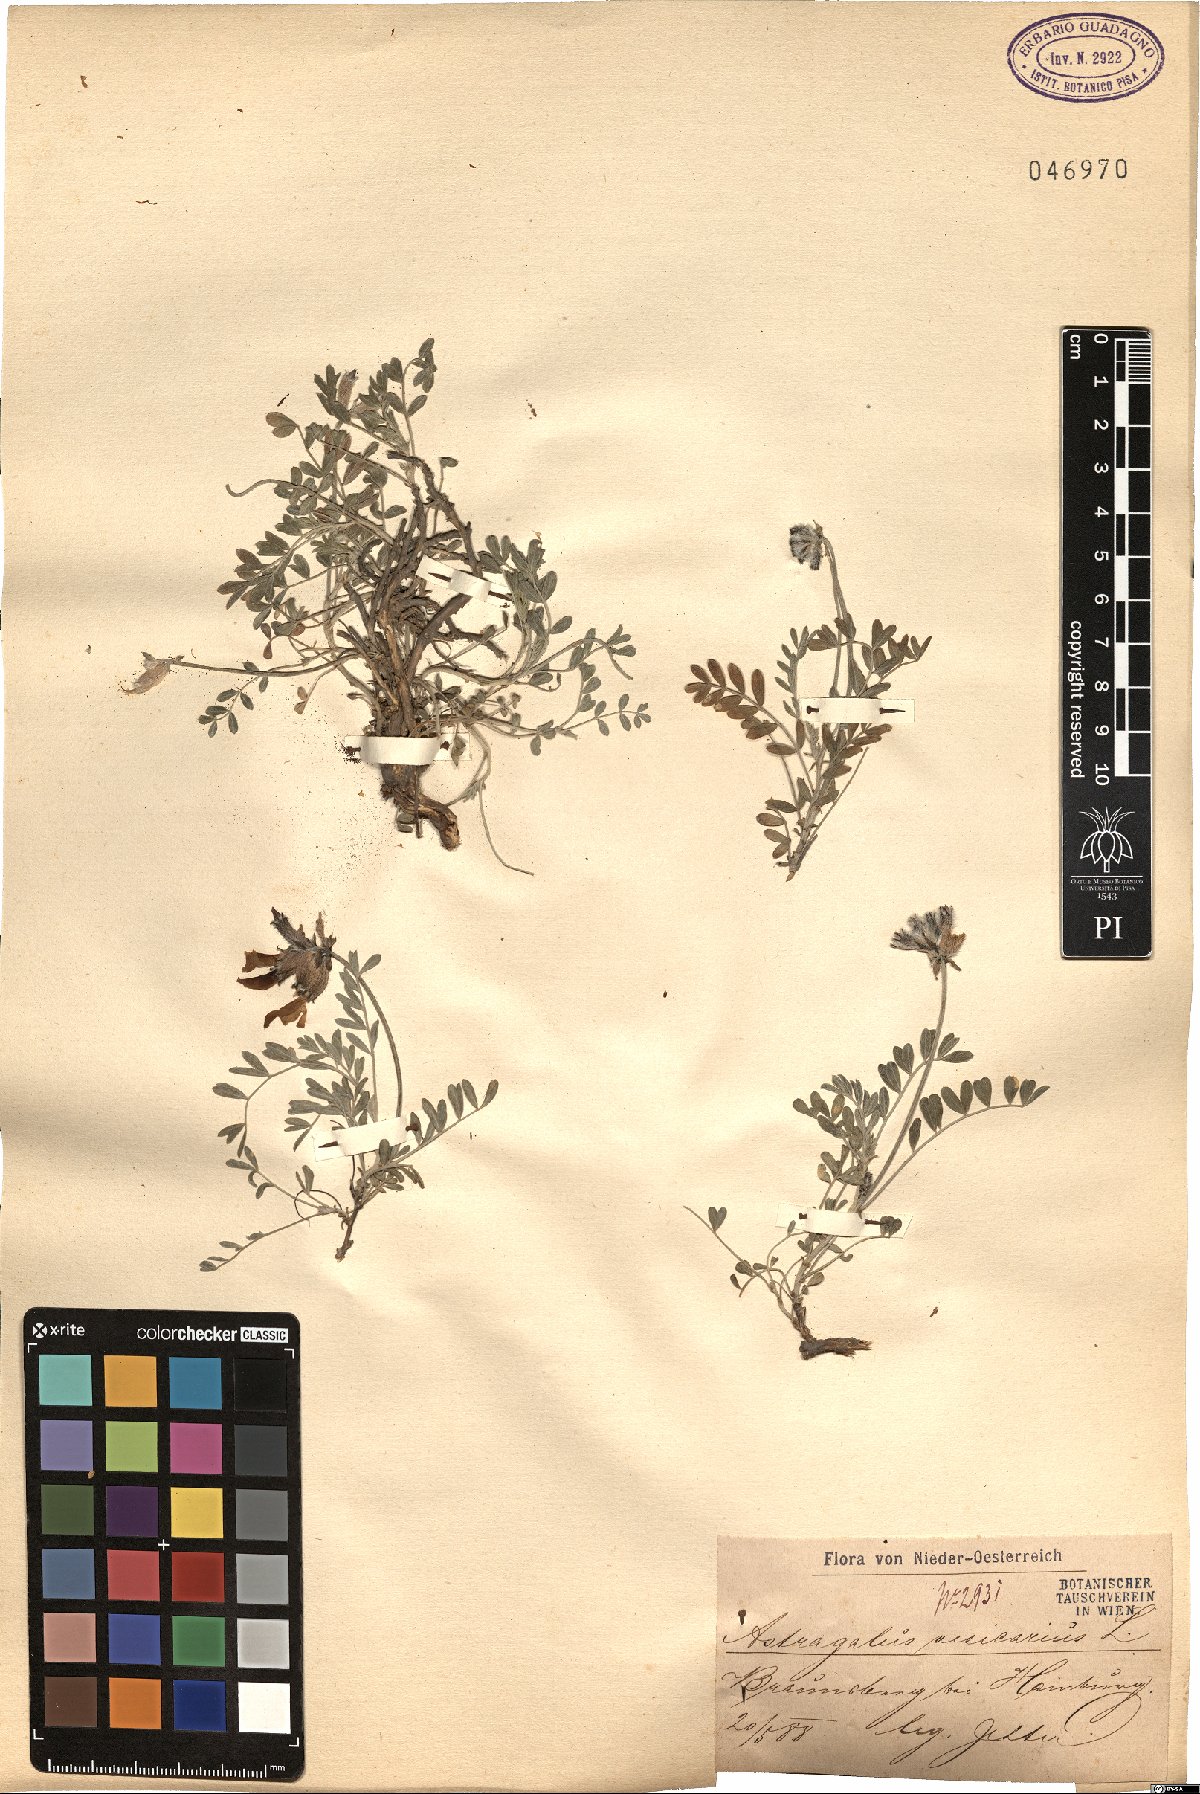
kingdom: Plantae
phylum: Tracheophyta
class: Magnoliopsida
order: Fabales
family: Fabaceae
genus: Astragalus
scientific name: Astragalus vesicarius
